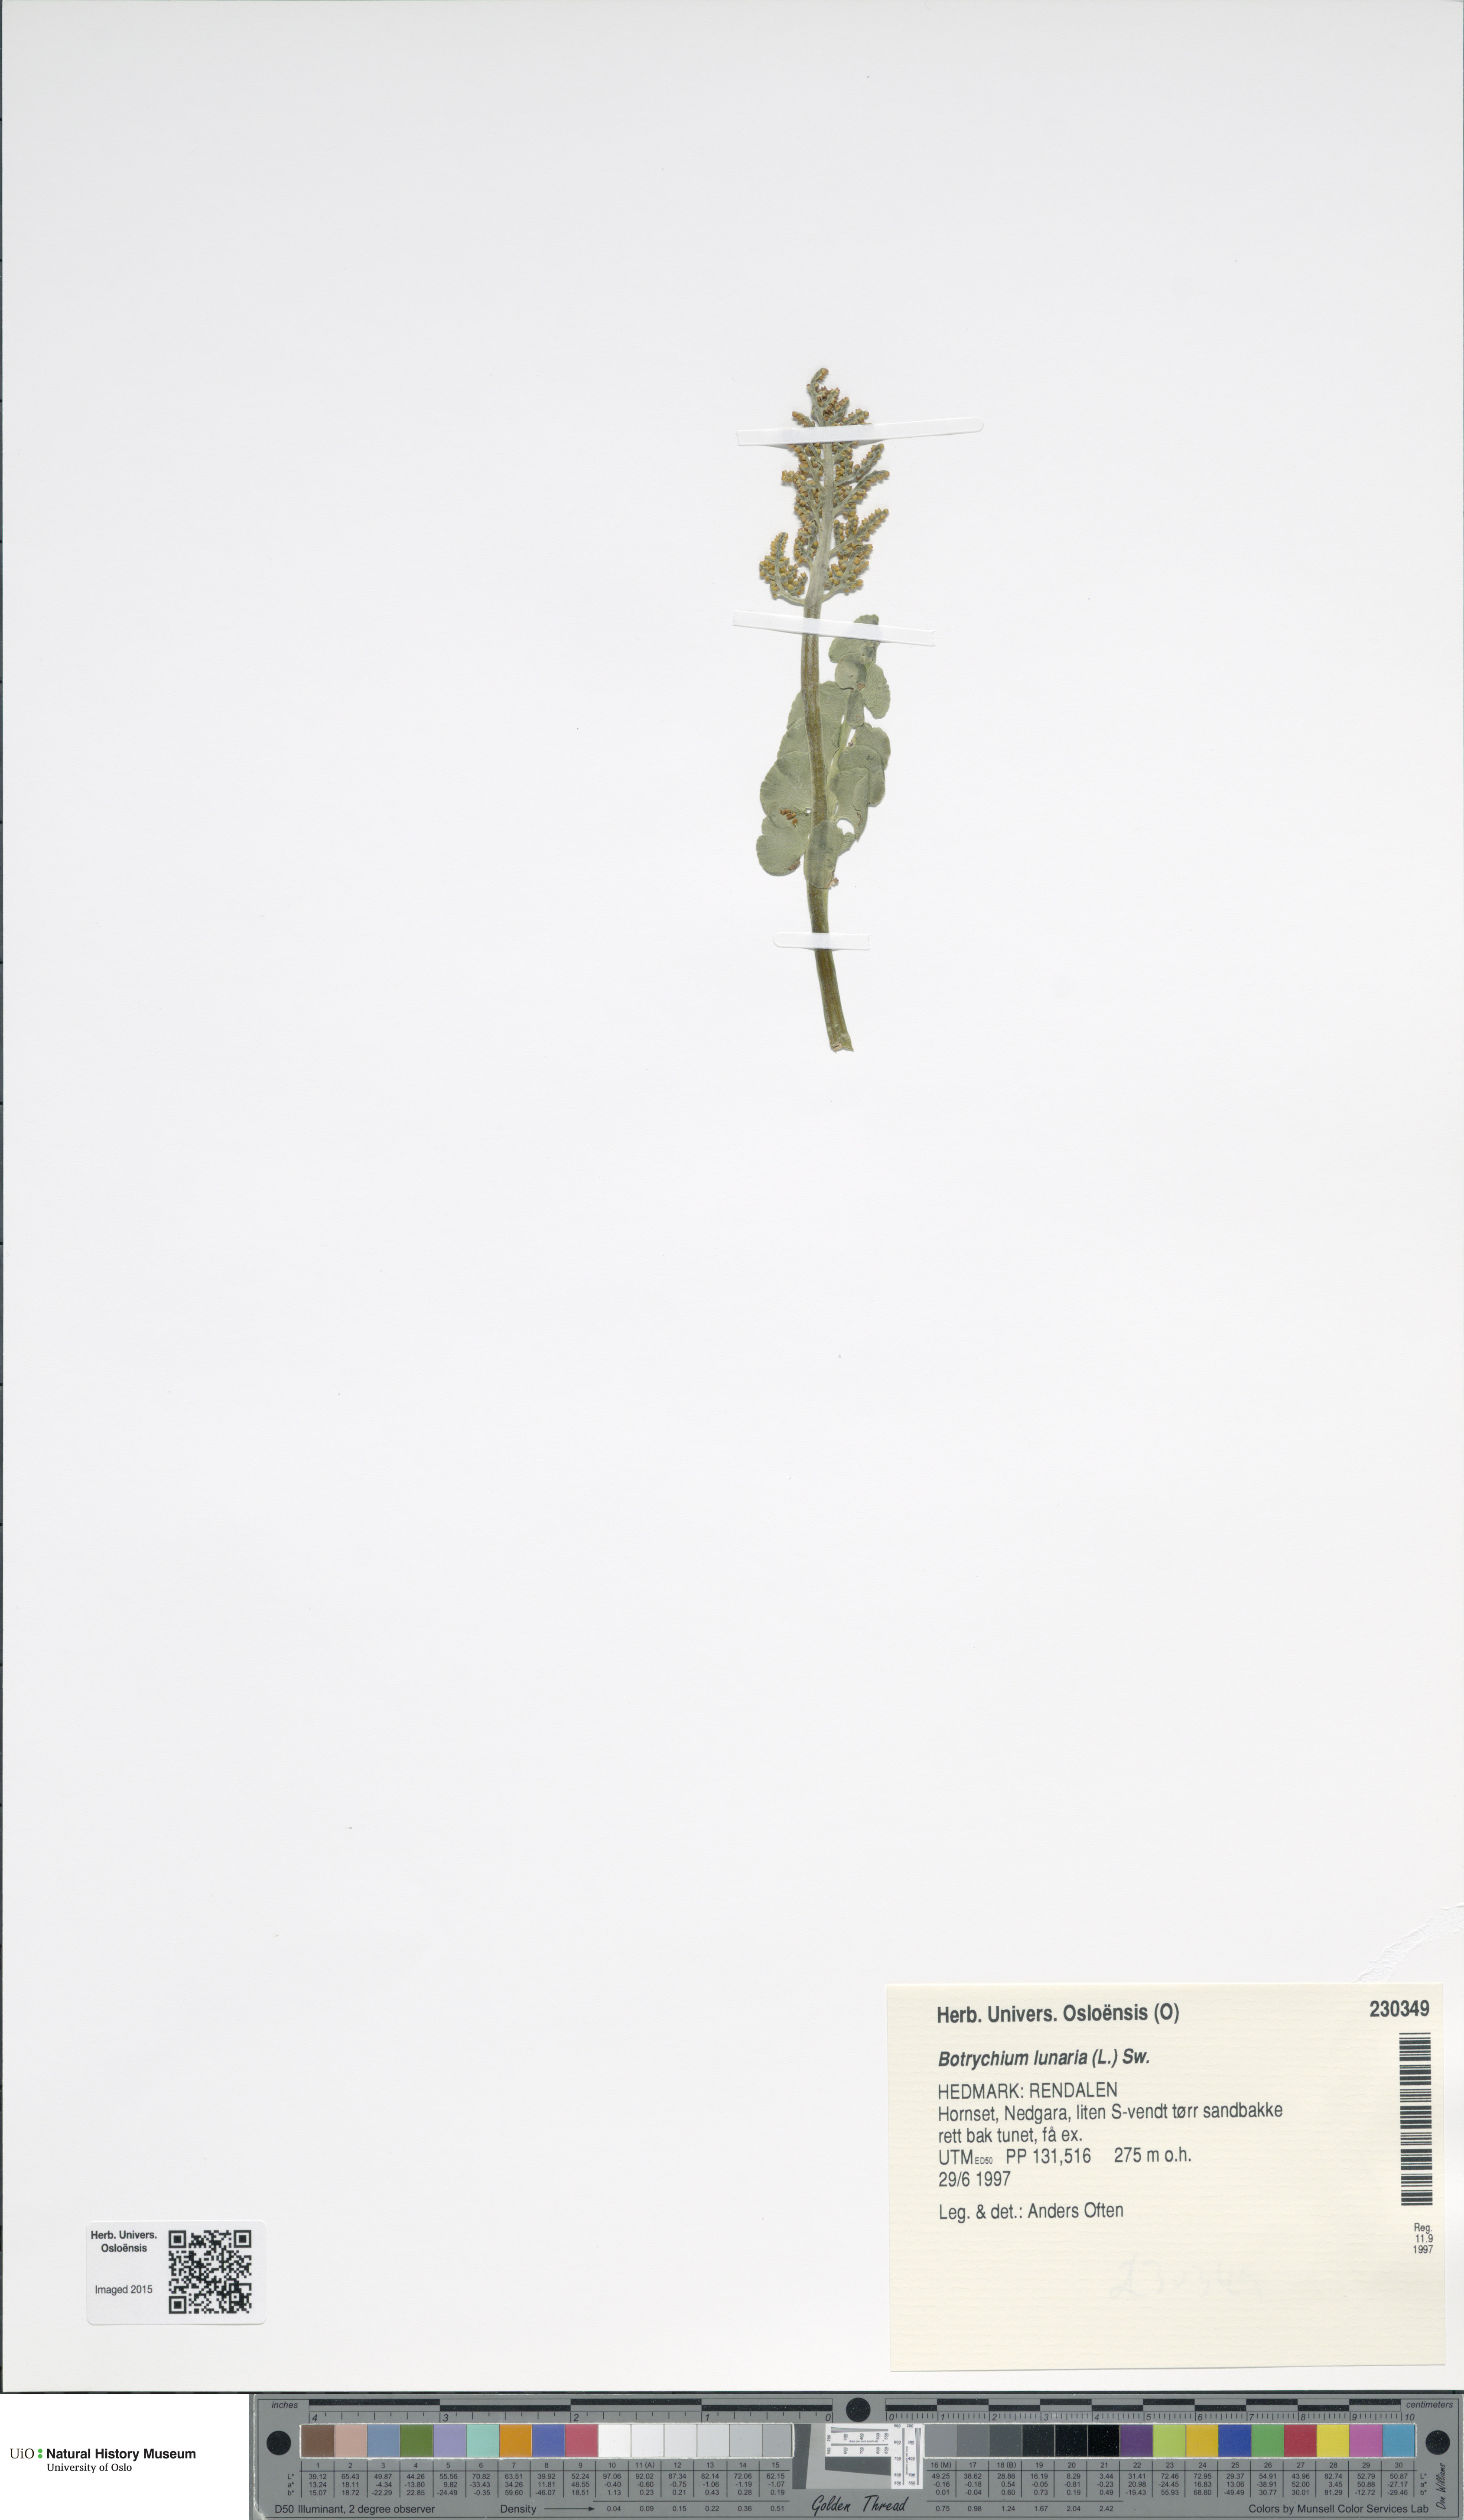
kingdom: Plantae
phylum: Tracheophyta
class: Polypodiopsida
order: Ophioglossales
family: Ophioglossaceae
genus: Botrychium
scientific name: Botrychium lunaria
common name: Moonwort
